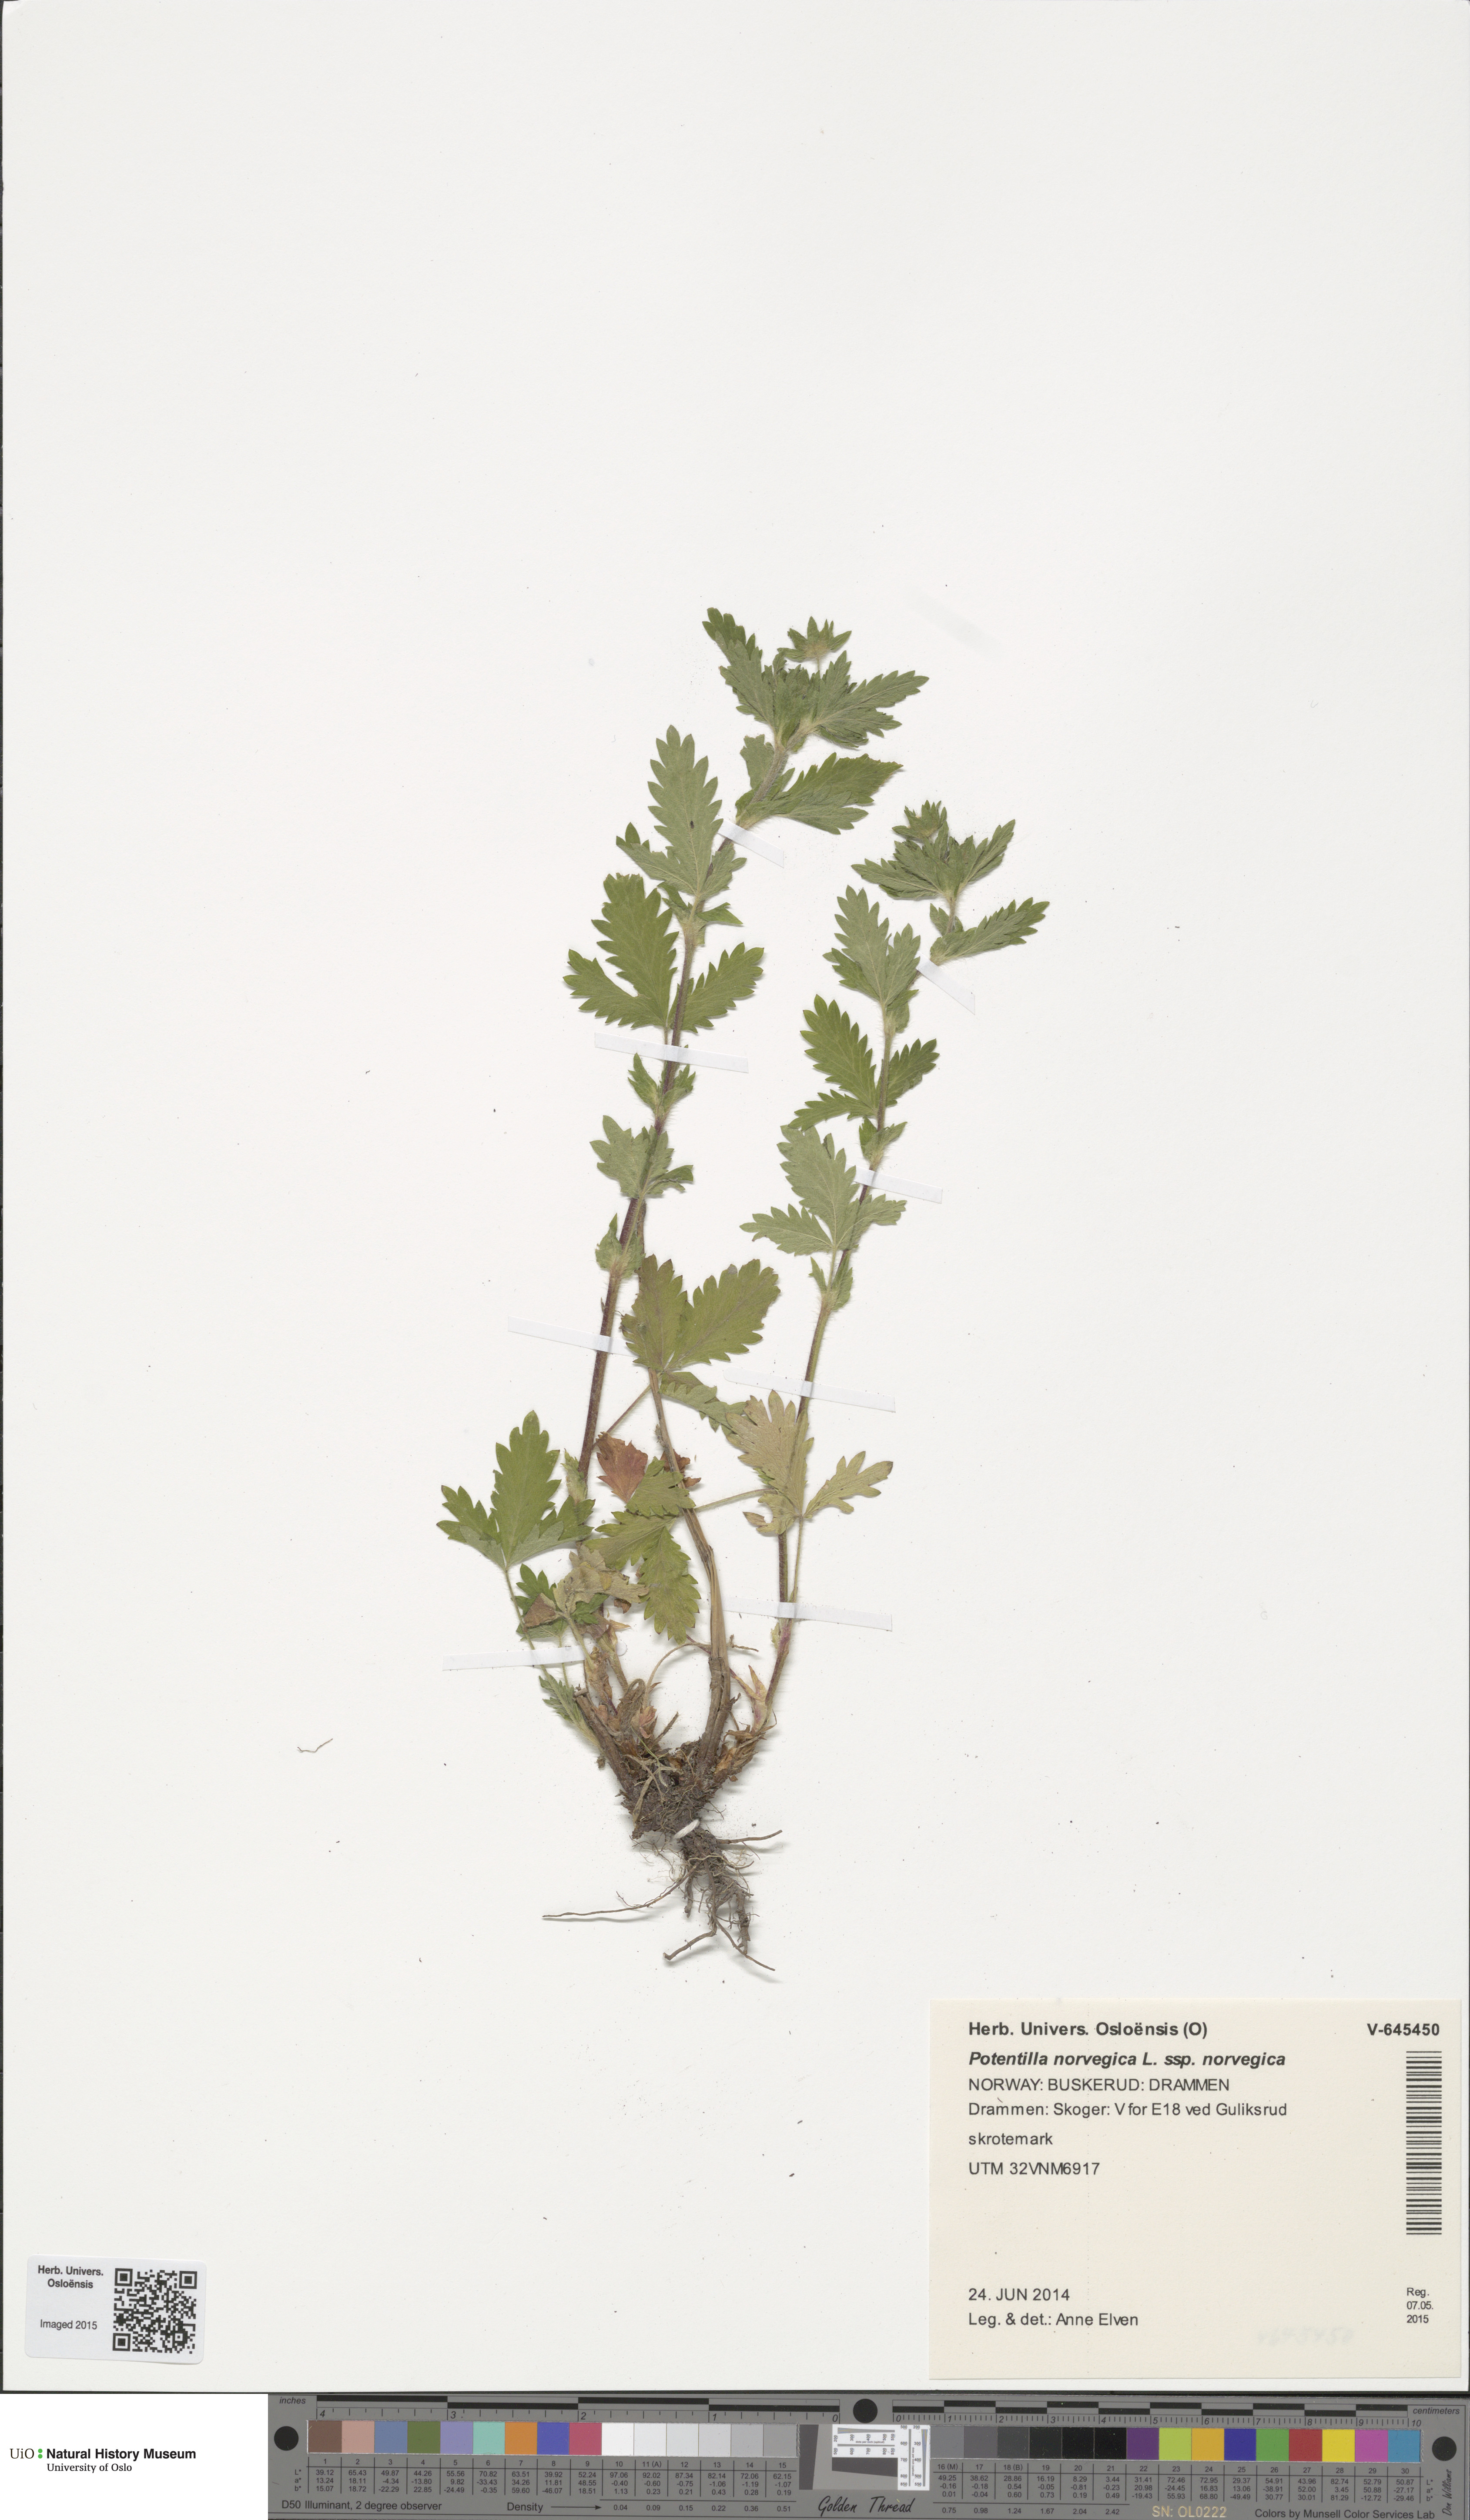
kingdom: Plantae
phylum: Tracheophyta
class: Magnoliopsida
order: Rosales
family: Rosaceae
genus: Potentilla
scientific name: Potentilla norvegica
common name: Ternate-leaved cinquefoil
